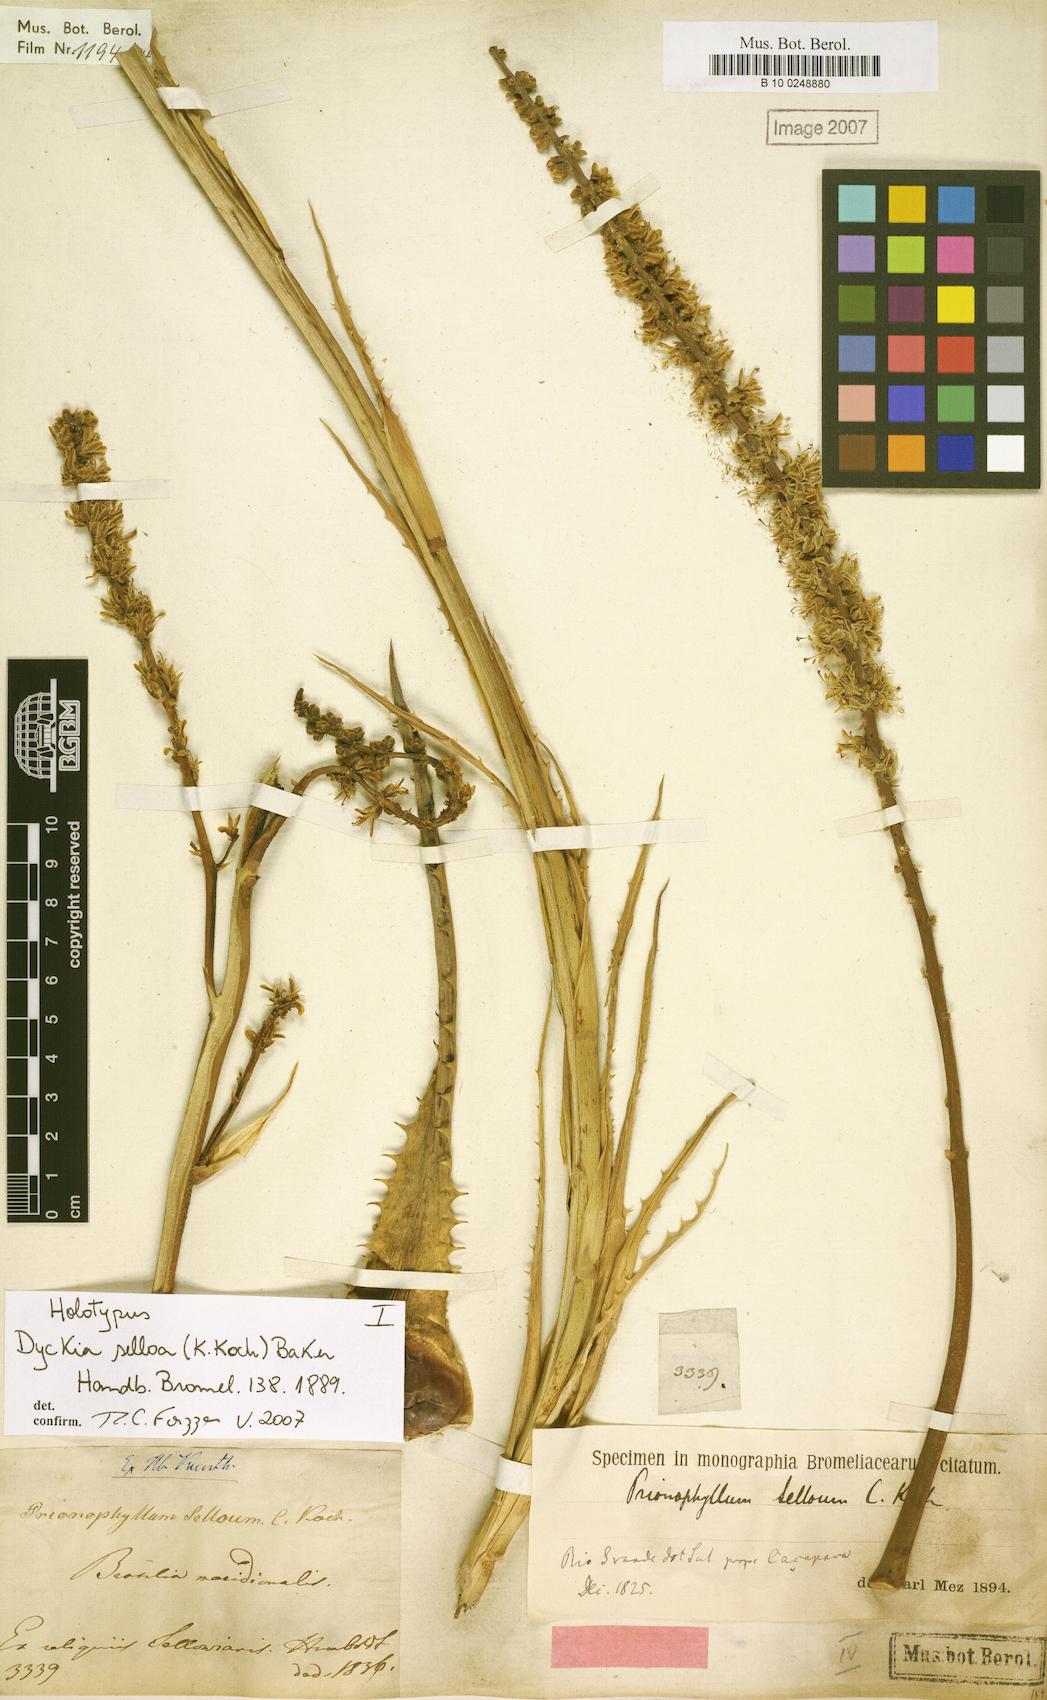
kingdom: Plantae
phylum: Tracheophyta
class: Liliopsida
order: Poales
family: Bromeliaceae
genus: Dyckia
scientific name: Dyckia selloa
